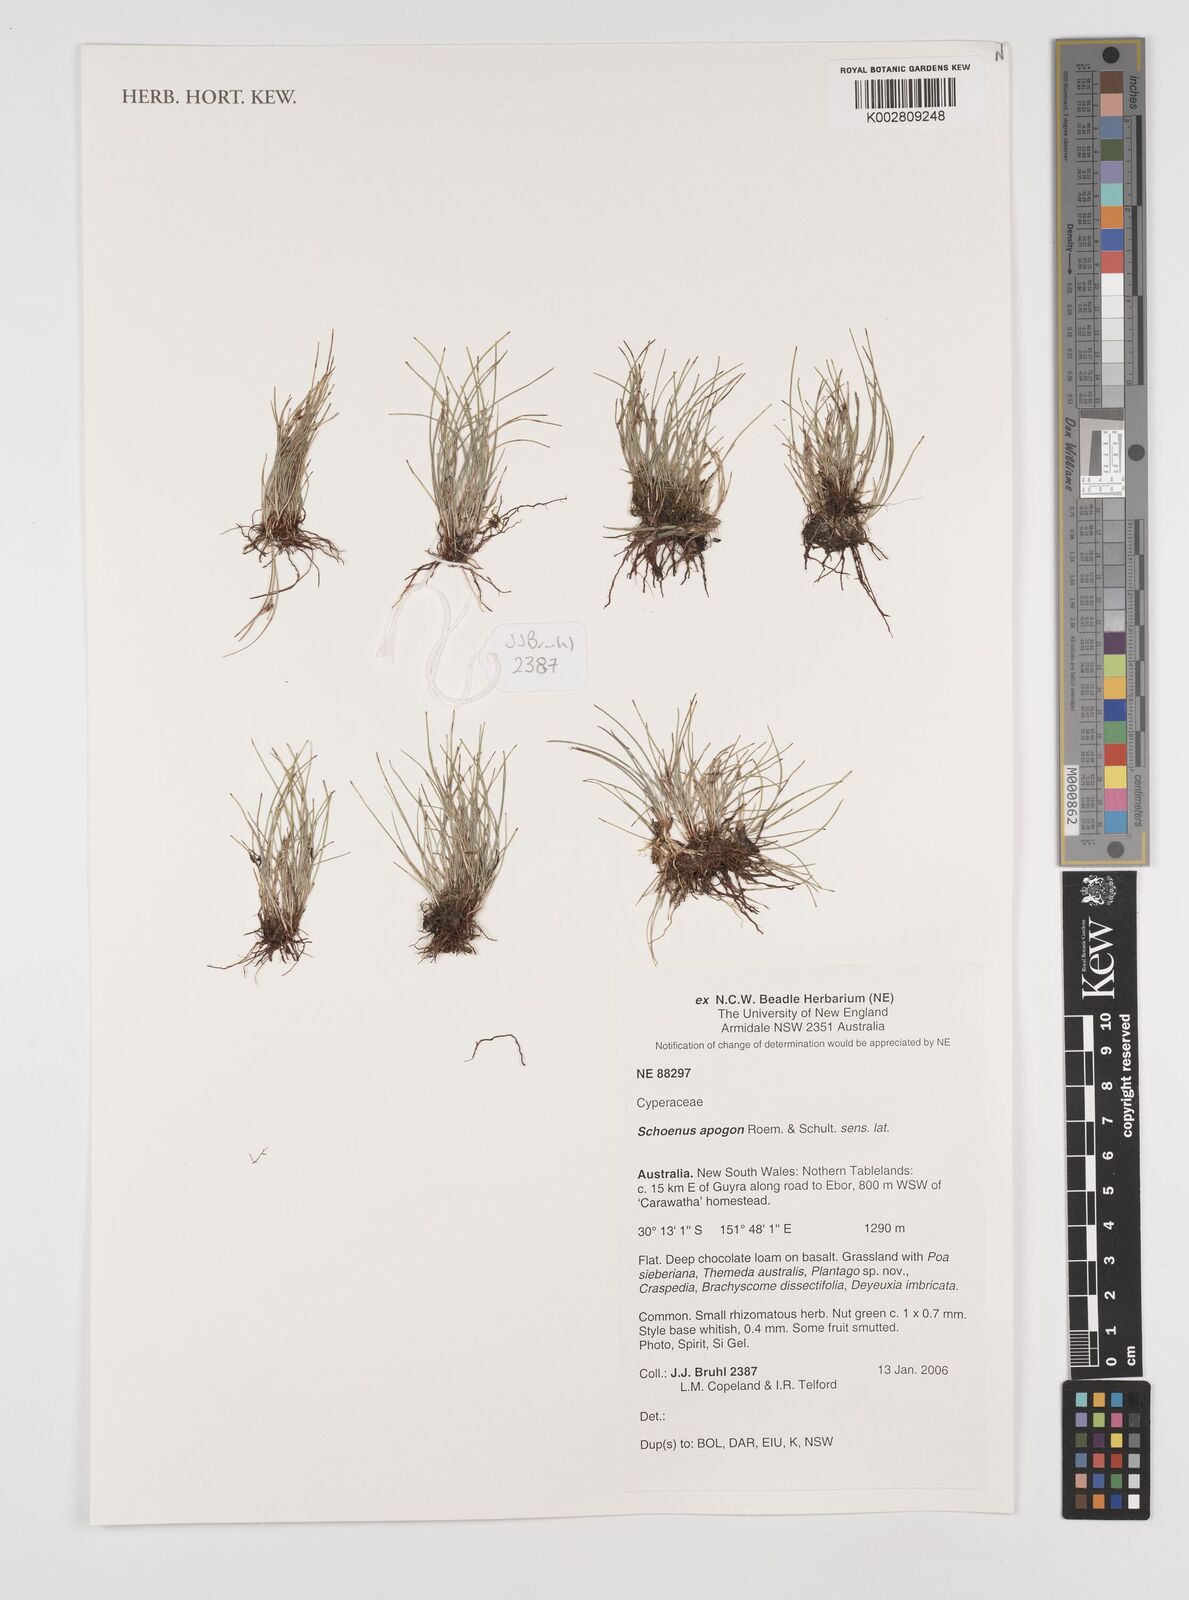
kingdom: Plantae
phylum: Tracheophyta
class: Liliopsida
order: Poales
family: Cyperaceae
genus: Schoenus
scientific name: Schoenus apogon
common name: Smooth bogrush
